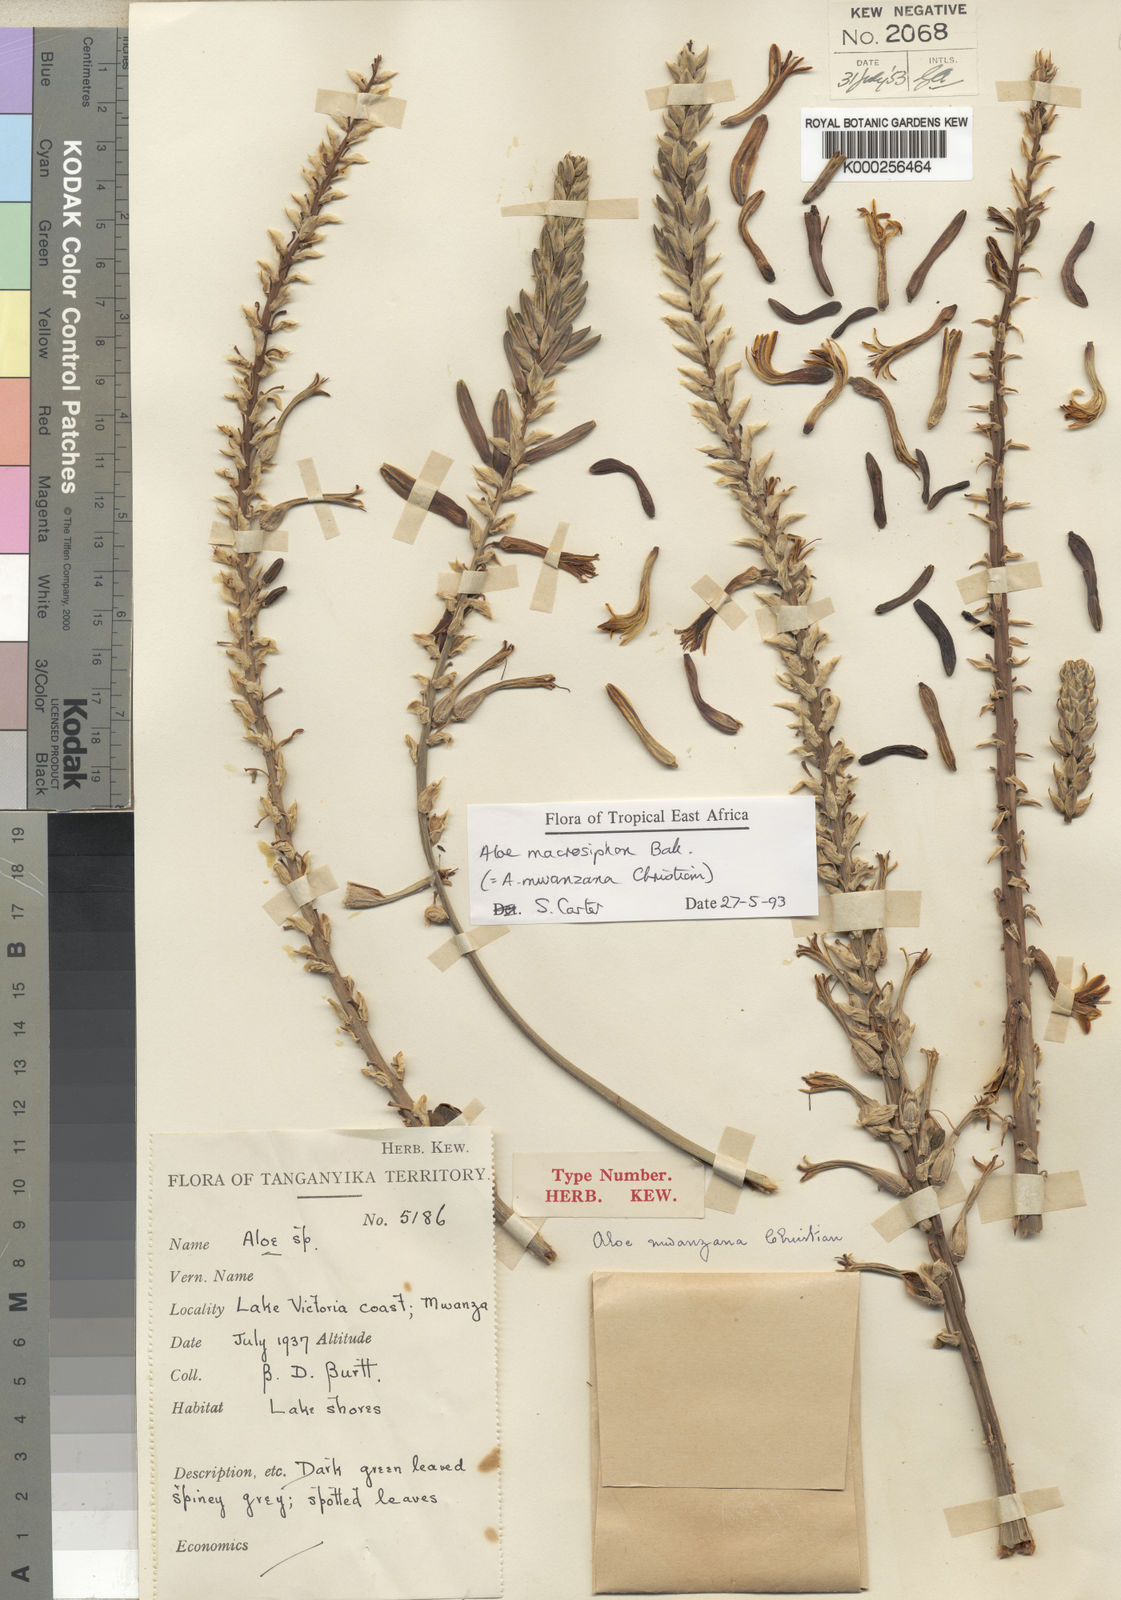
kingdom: Plantae
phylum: Tracheophyta
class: Liliopsida
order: Asparagales
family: Asphodelaceae
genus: Aloe
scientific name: Aloe macrosiphon
